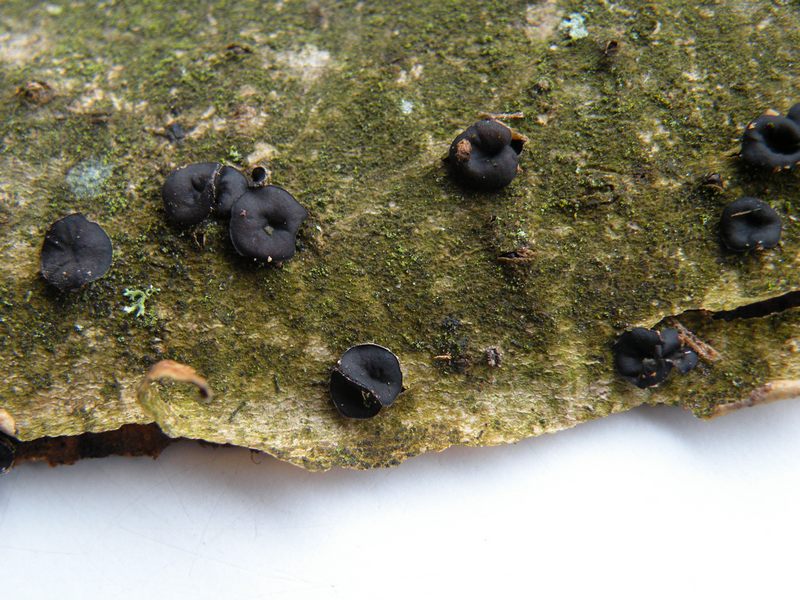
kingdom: Fungi
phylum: Ascomycota
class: Leotiomycetes
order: Helotiales
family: Sclerotiniaceae
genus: Sclerencoelia
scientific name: Sclerencoelia fraxinicola
